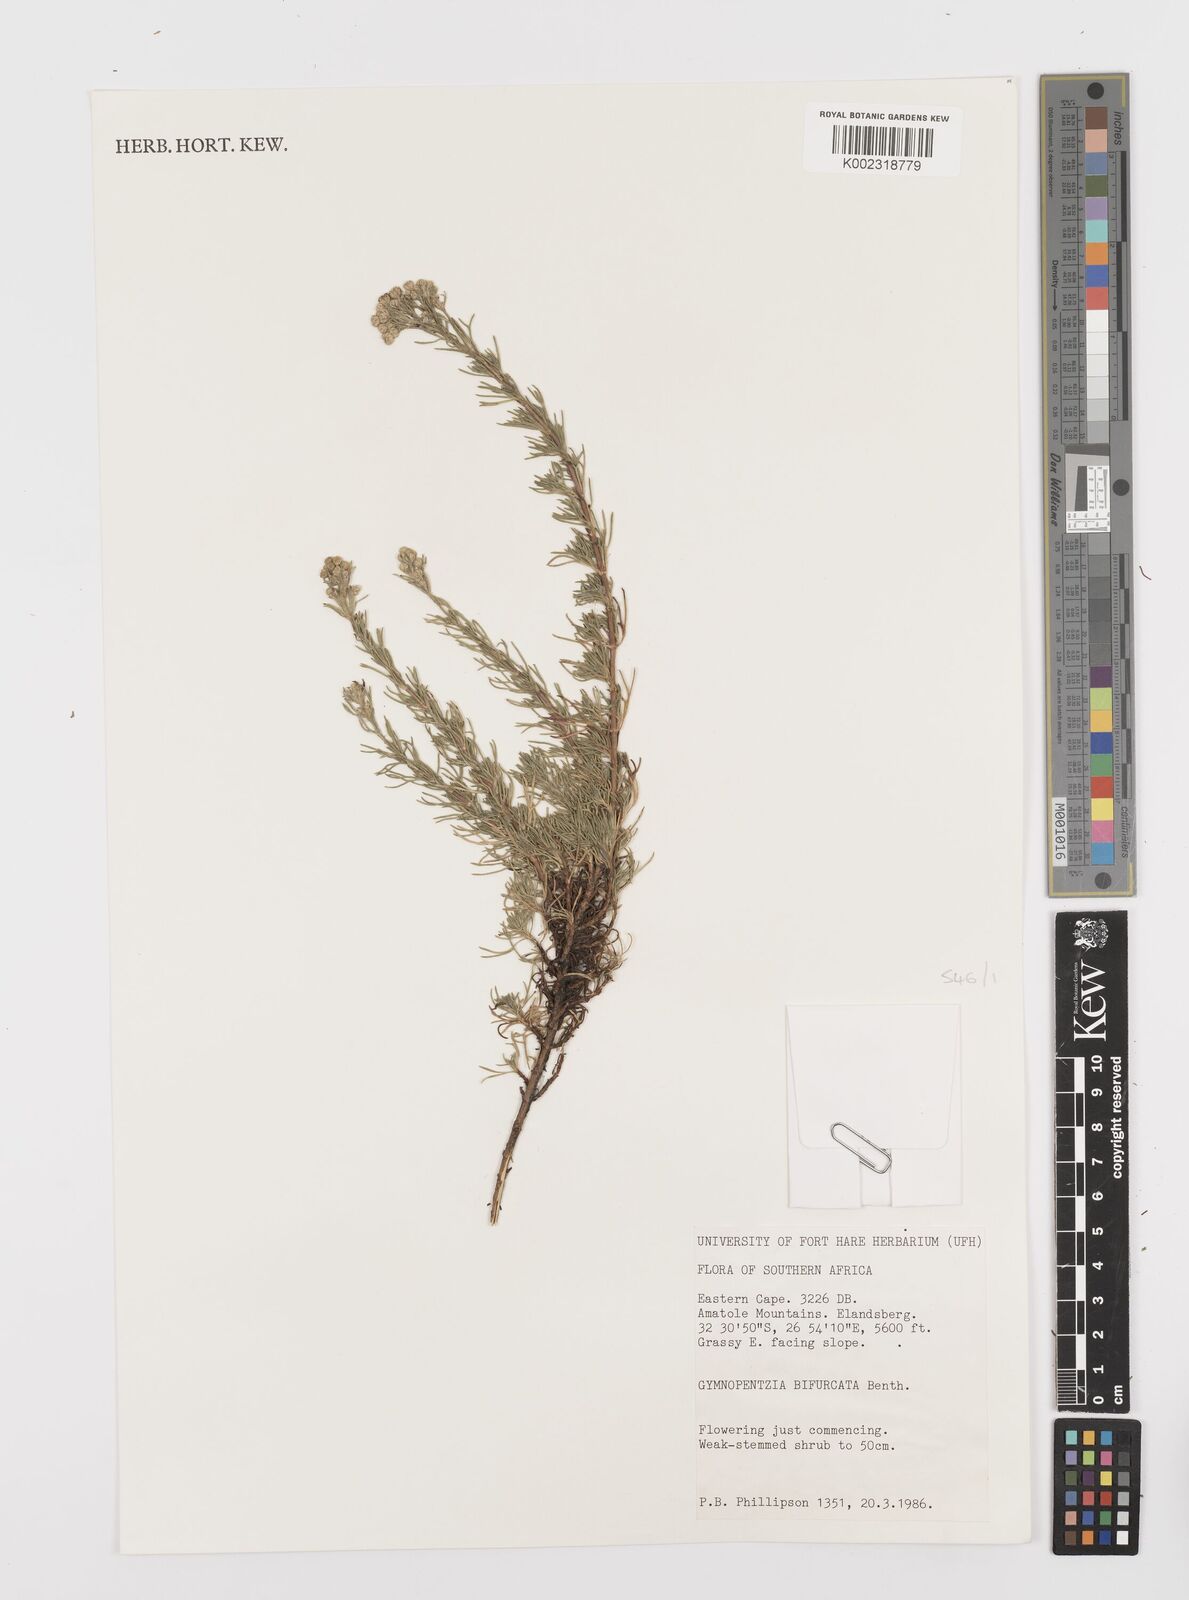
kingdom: Plantae
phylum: Tracheophyta
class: Magnoliopsida
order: Asterales
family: Asteraceae
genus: Gymnopentzia
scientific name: Gymnopentzia bifurcata
